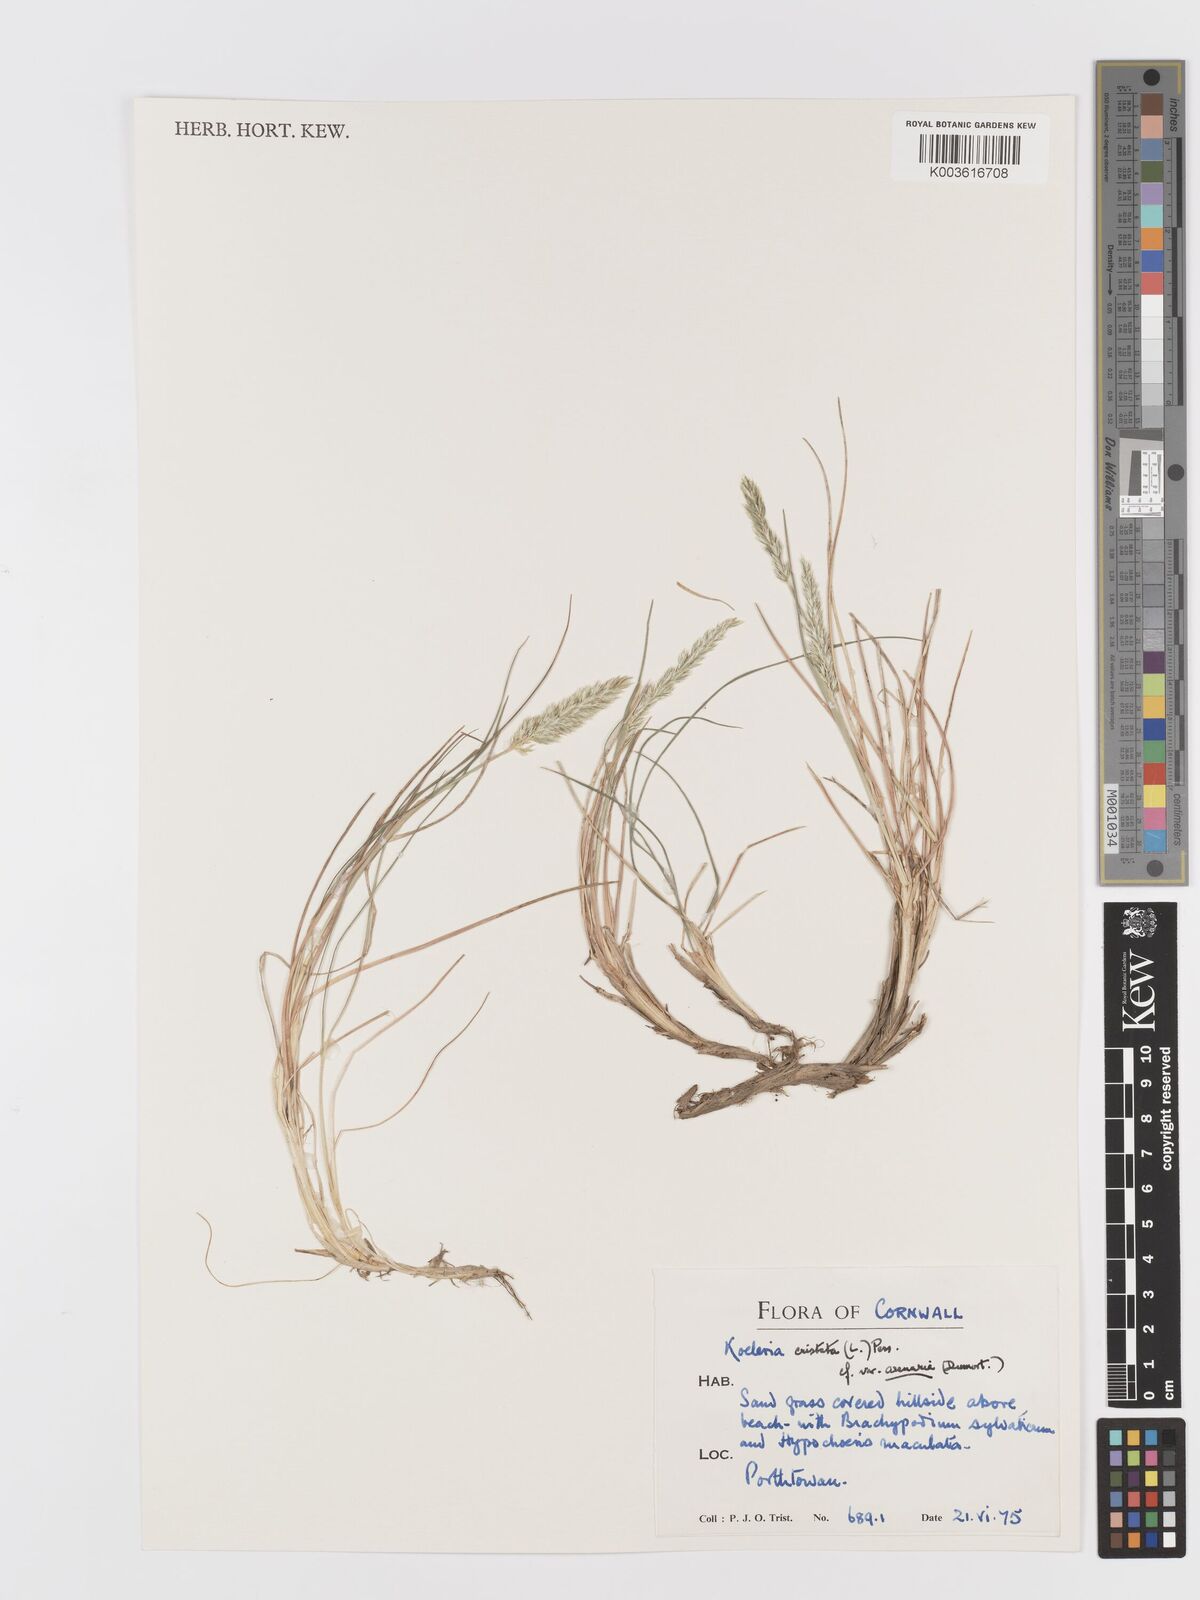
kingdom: Plantae
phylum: Tracheophyta
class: Liliopsida
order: Poales
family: Poaceae
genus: Koeleria
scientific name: Koeleria
